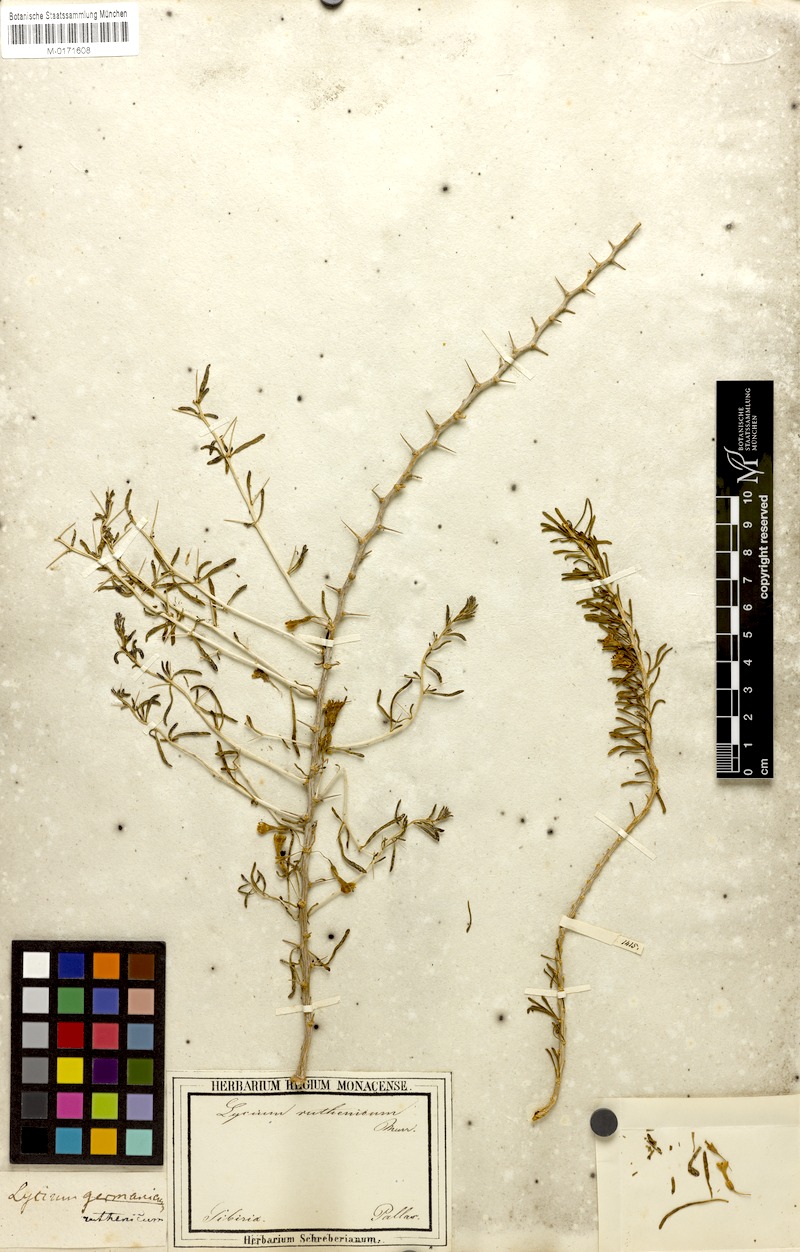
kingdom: Plantae
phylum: Tracheophyta
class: Magnoliopsida
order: Solanales
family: Solanaceae
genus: Lycium
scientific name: Lycium ruthenicum
